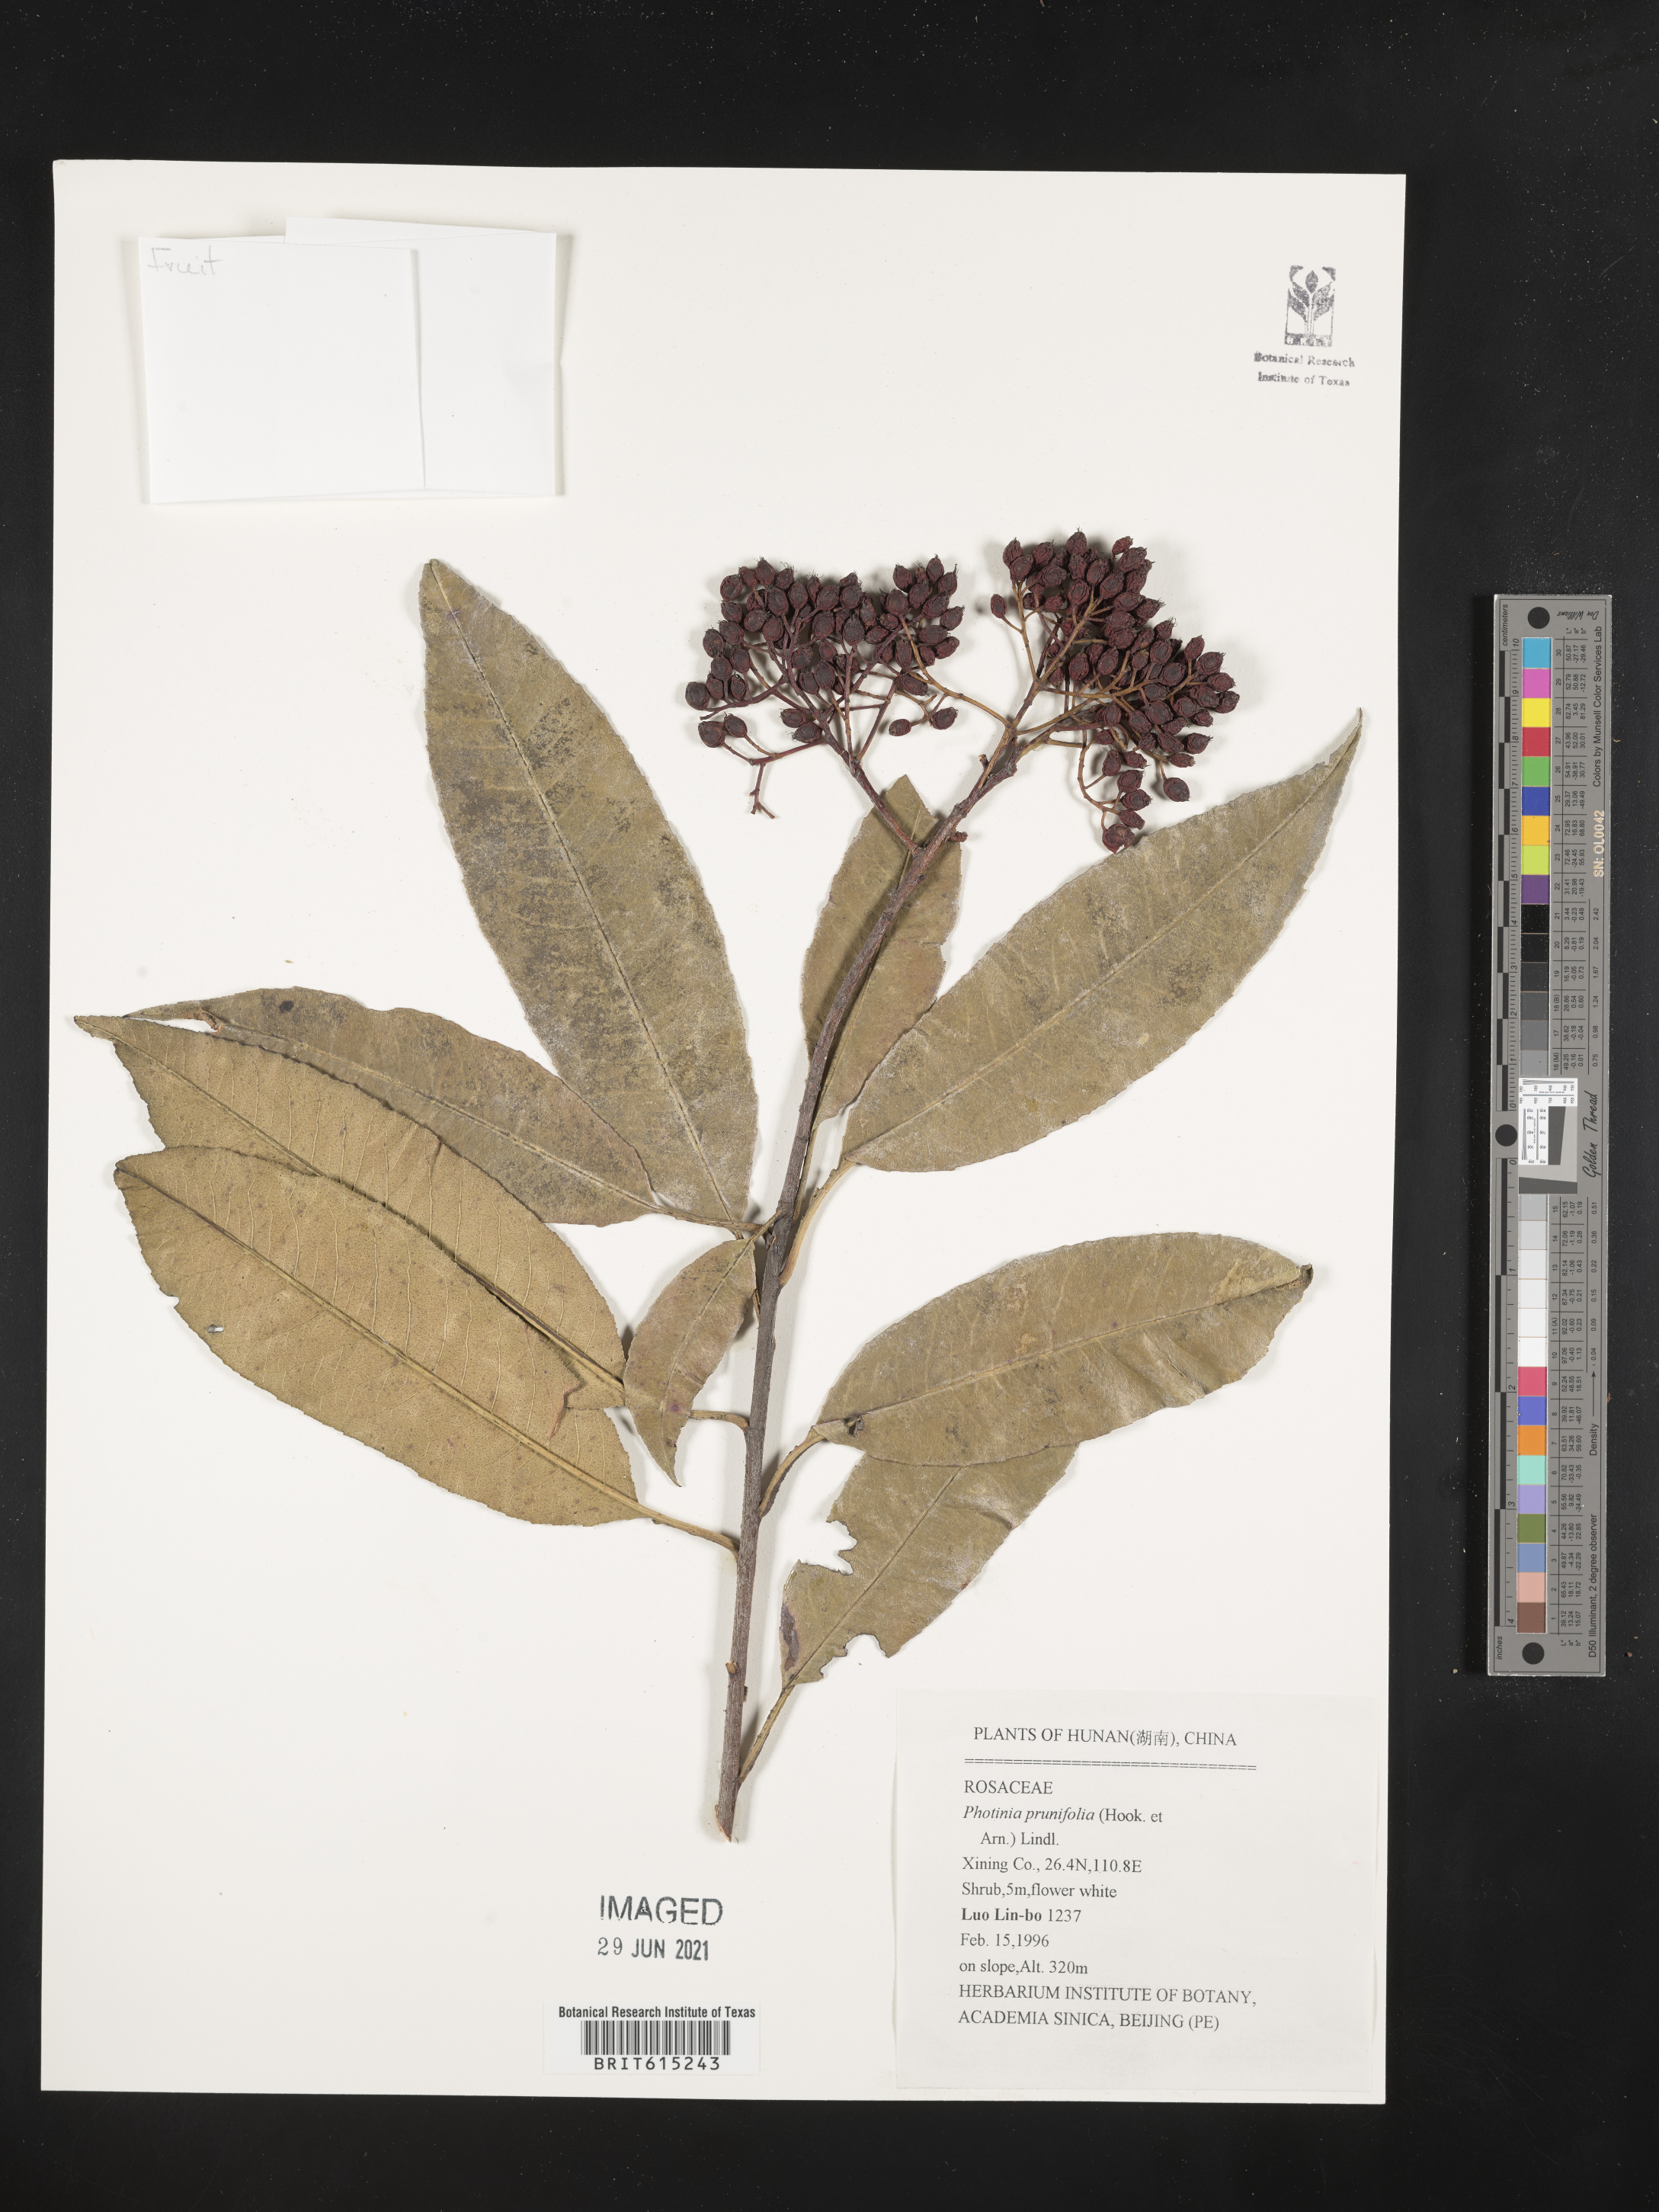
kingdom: Plantae
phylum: Tracheophyta
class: Magnoliopsida
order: Rosales
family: Rosaceae
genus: Photinia
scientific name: Photinia prunifolia
